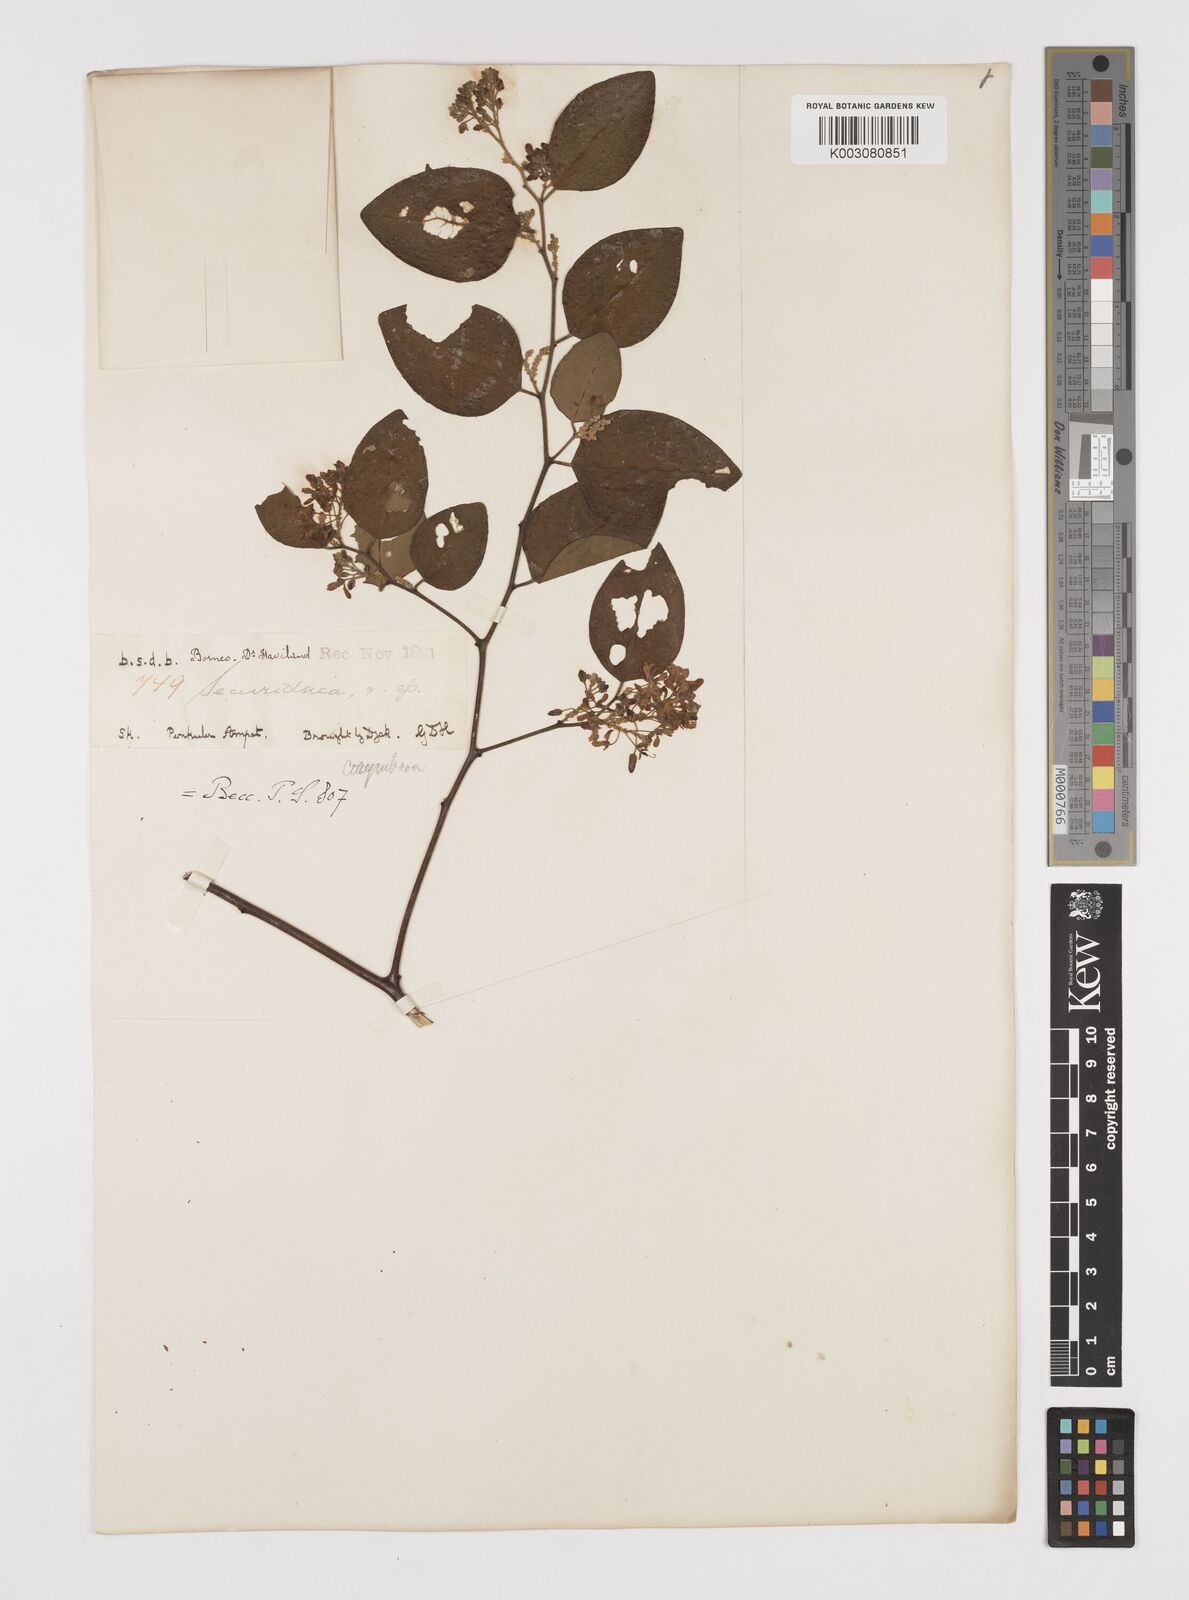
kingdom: Plantae
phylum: Tracheophyta
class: Magnoliopsida
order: Fabales
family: Polygalaceae
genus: Securidaca
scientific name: Securidaca inappendiculata
